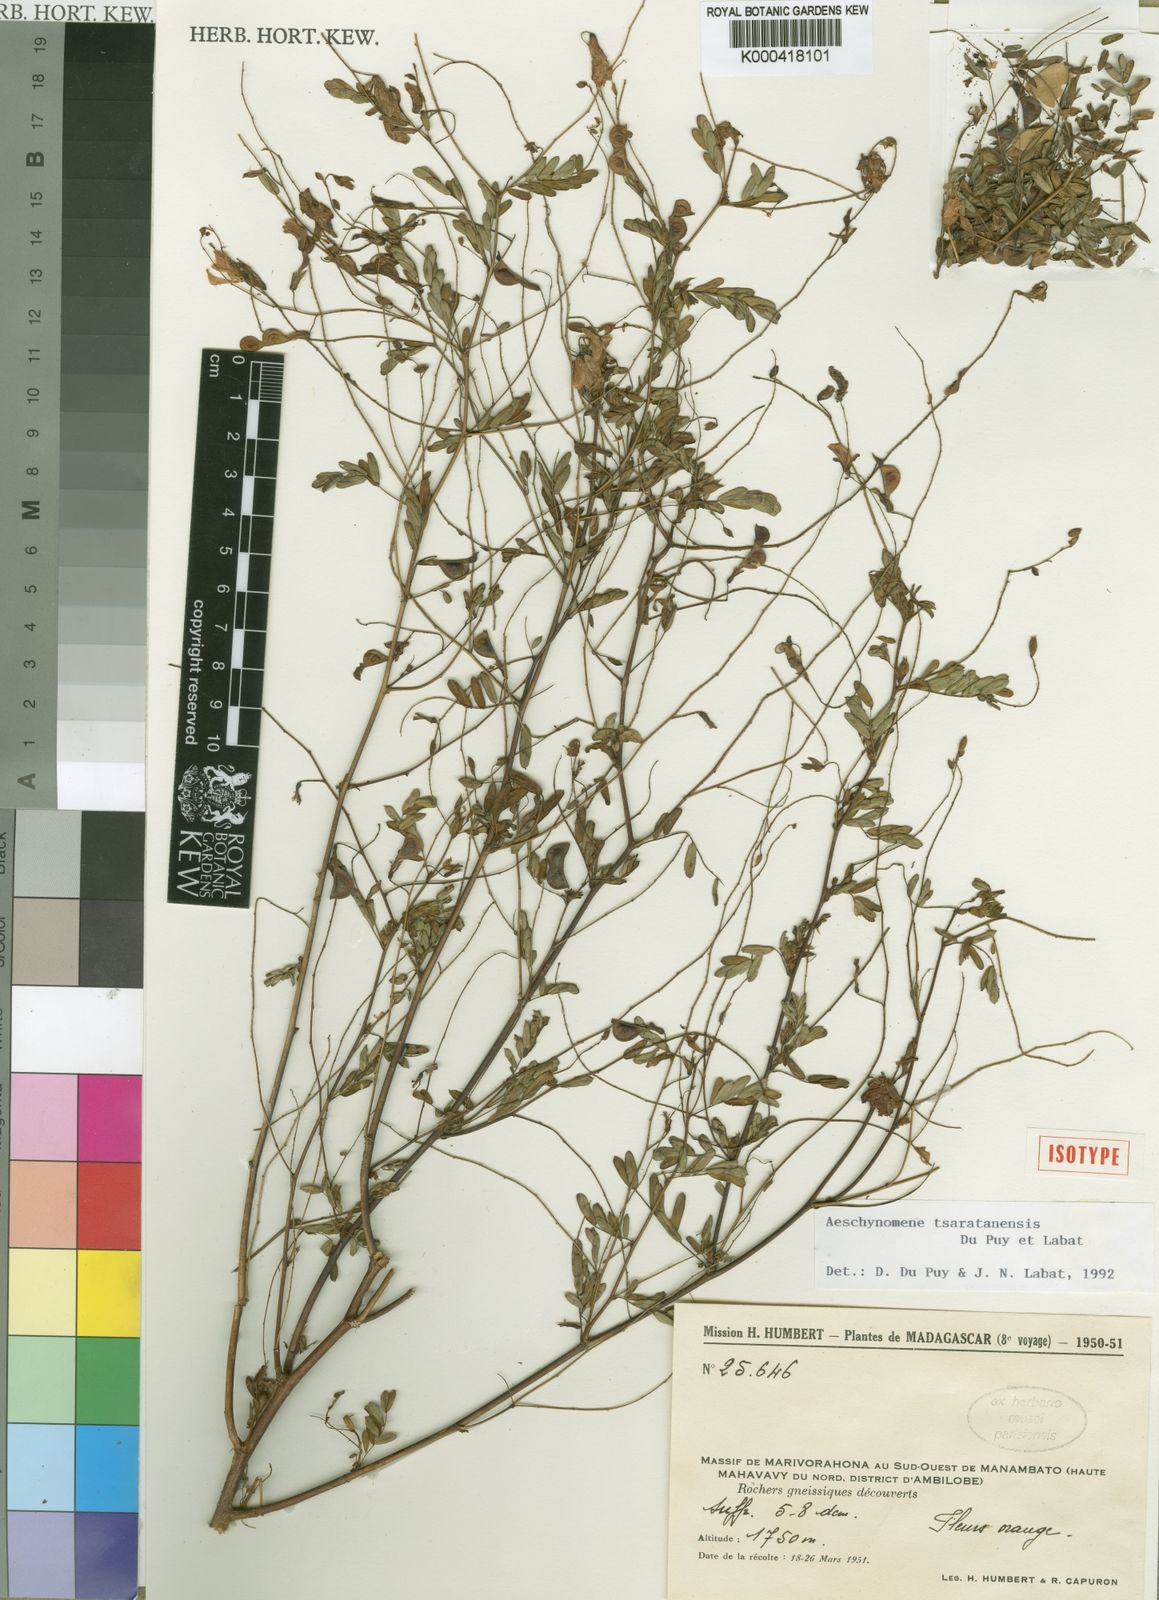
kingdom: Plantae
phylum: Tracheophyta
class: Magnoliopsida
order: Fabales
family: Fabaceae
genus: Aeschynomene
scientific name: Aeschynomene tsaratanensis
